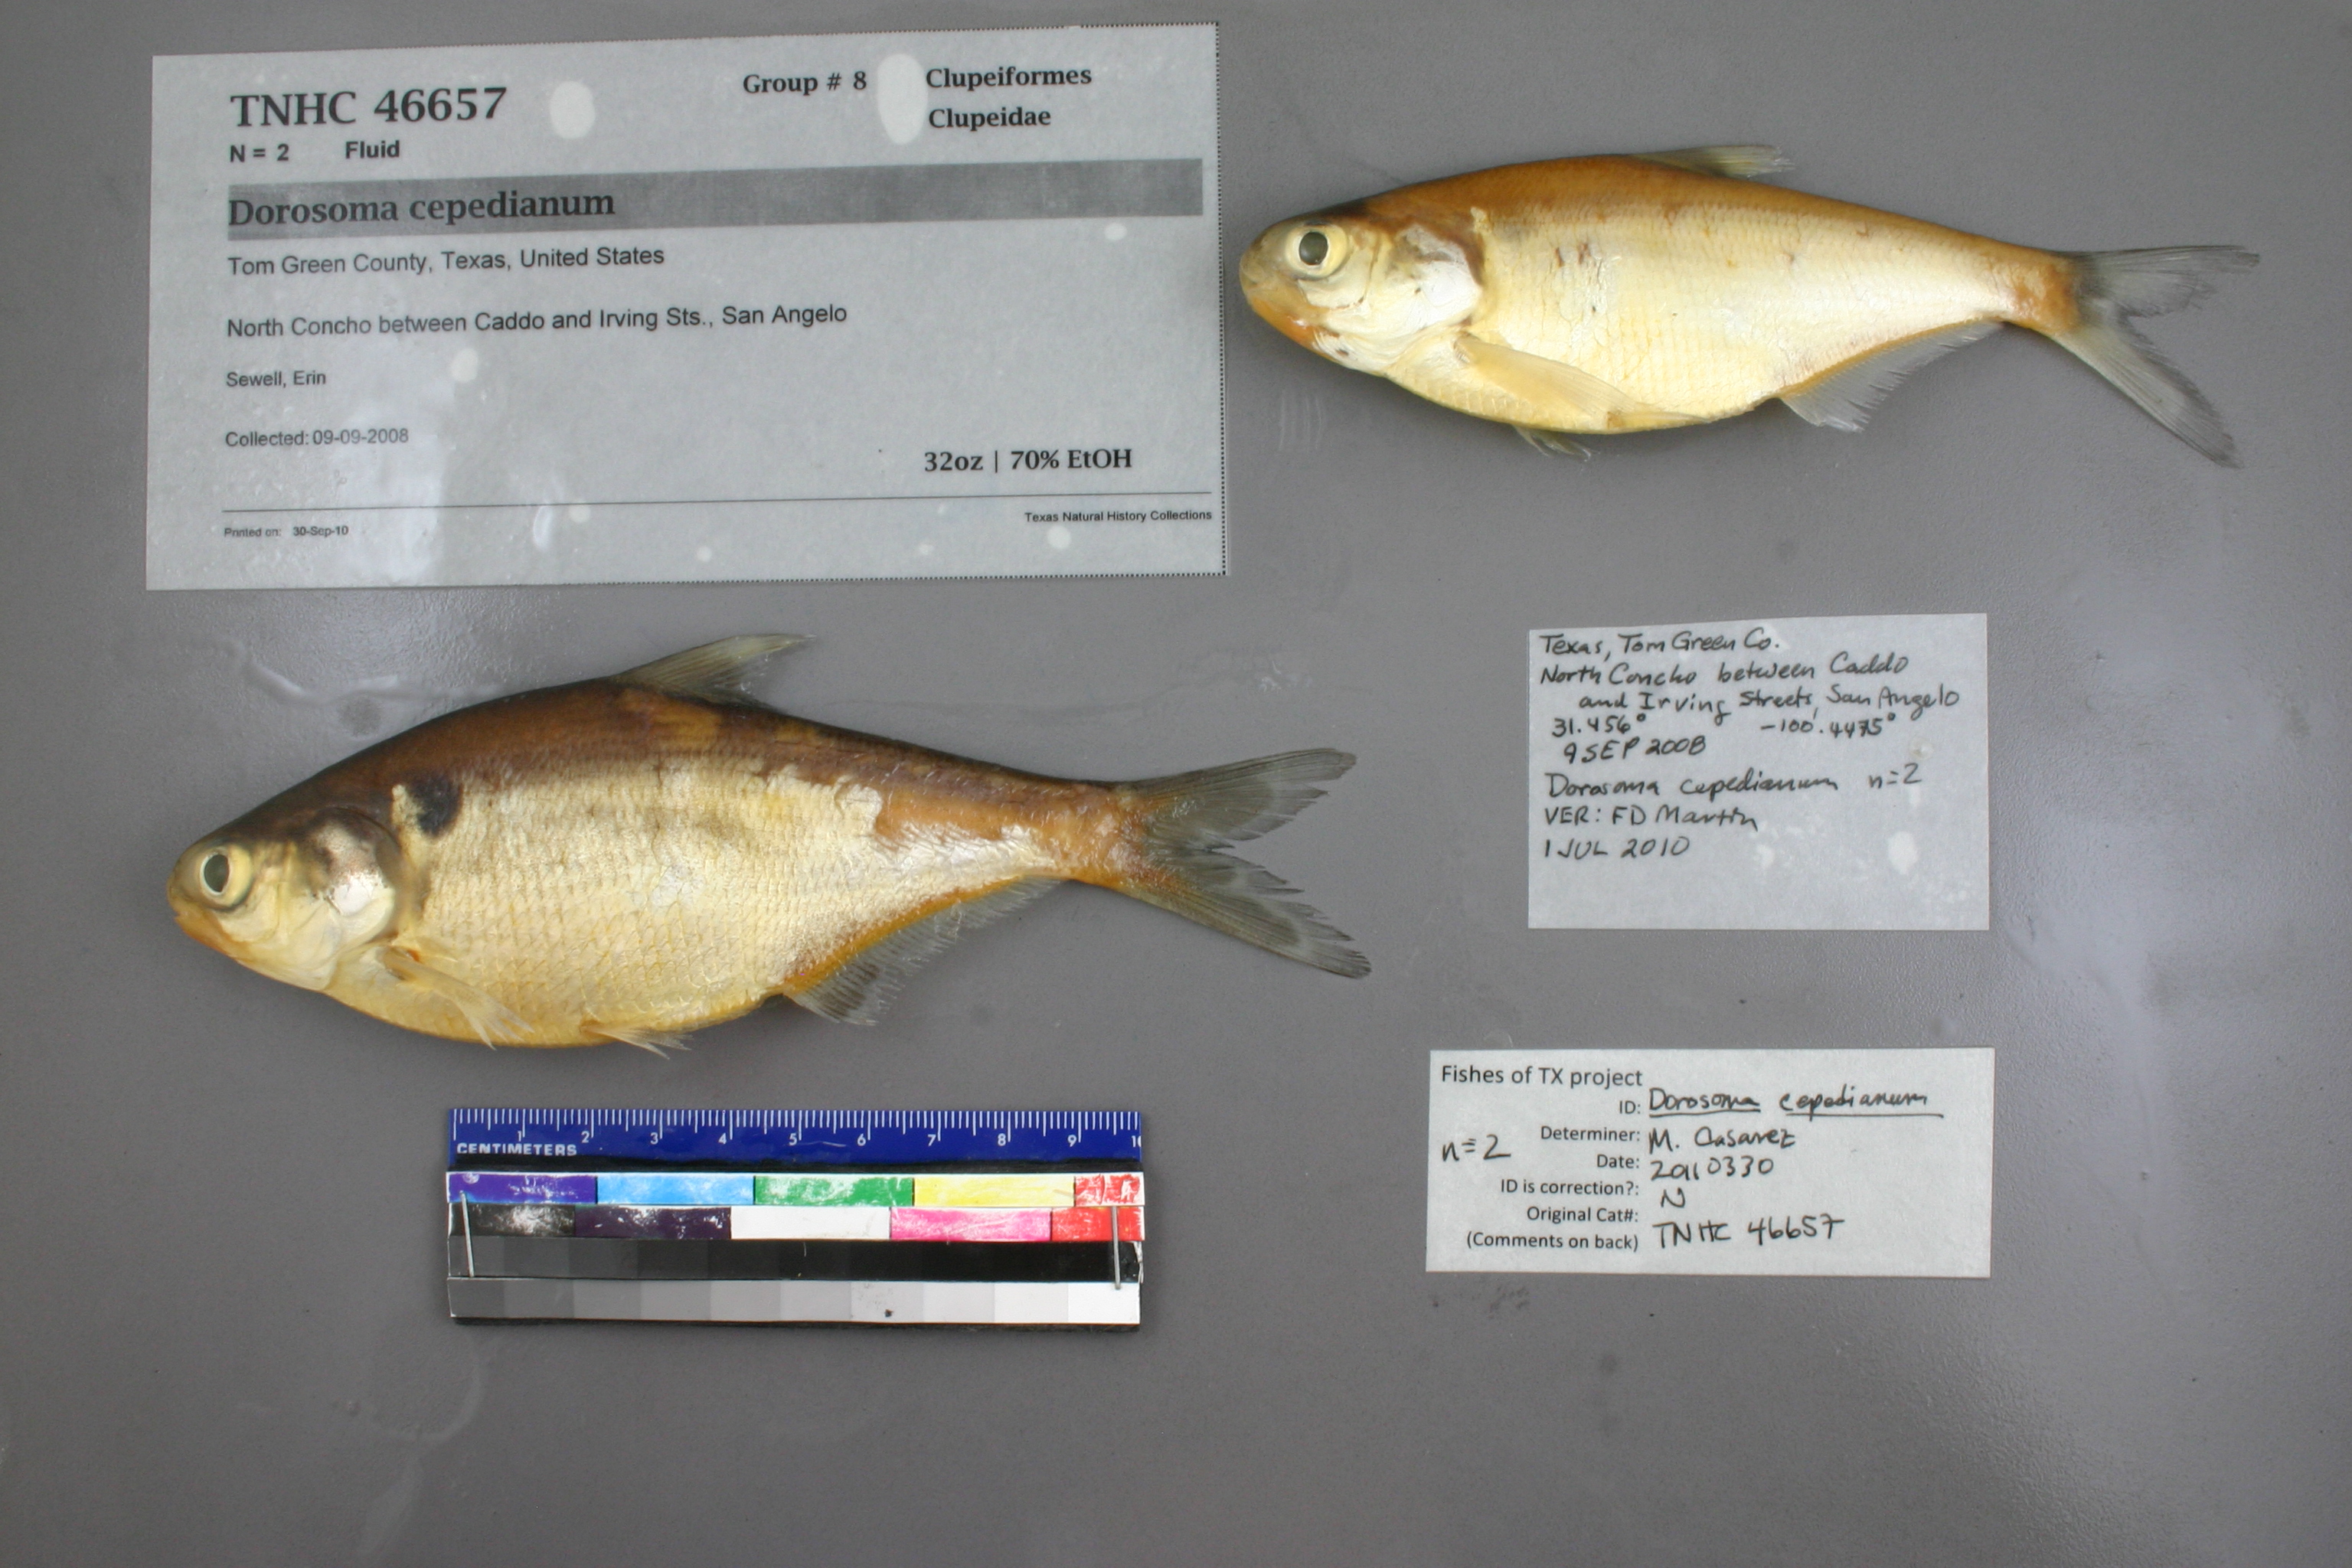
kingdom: Animalia
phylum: Chordata
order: Clupeiformes
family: Clupeidae
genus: Dorosoma
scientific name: Dorosoma cepedianum
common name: Gizzard shad
